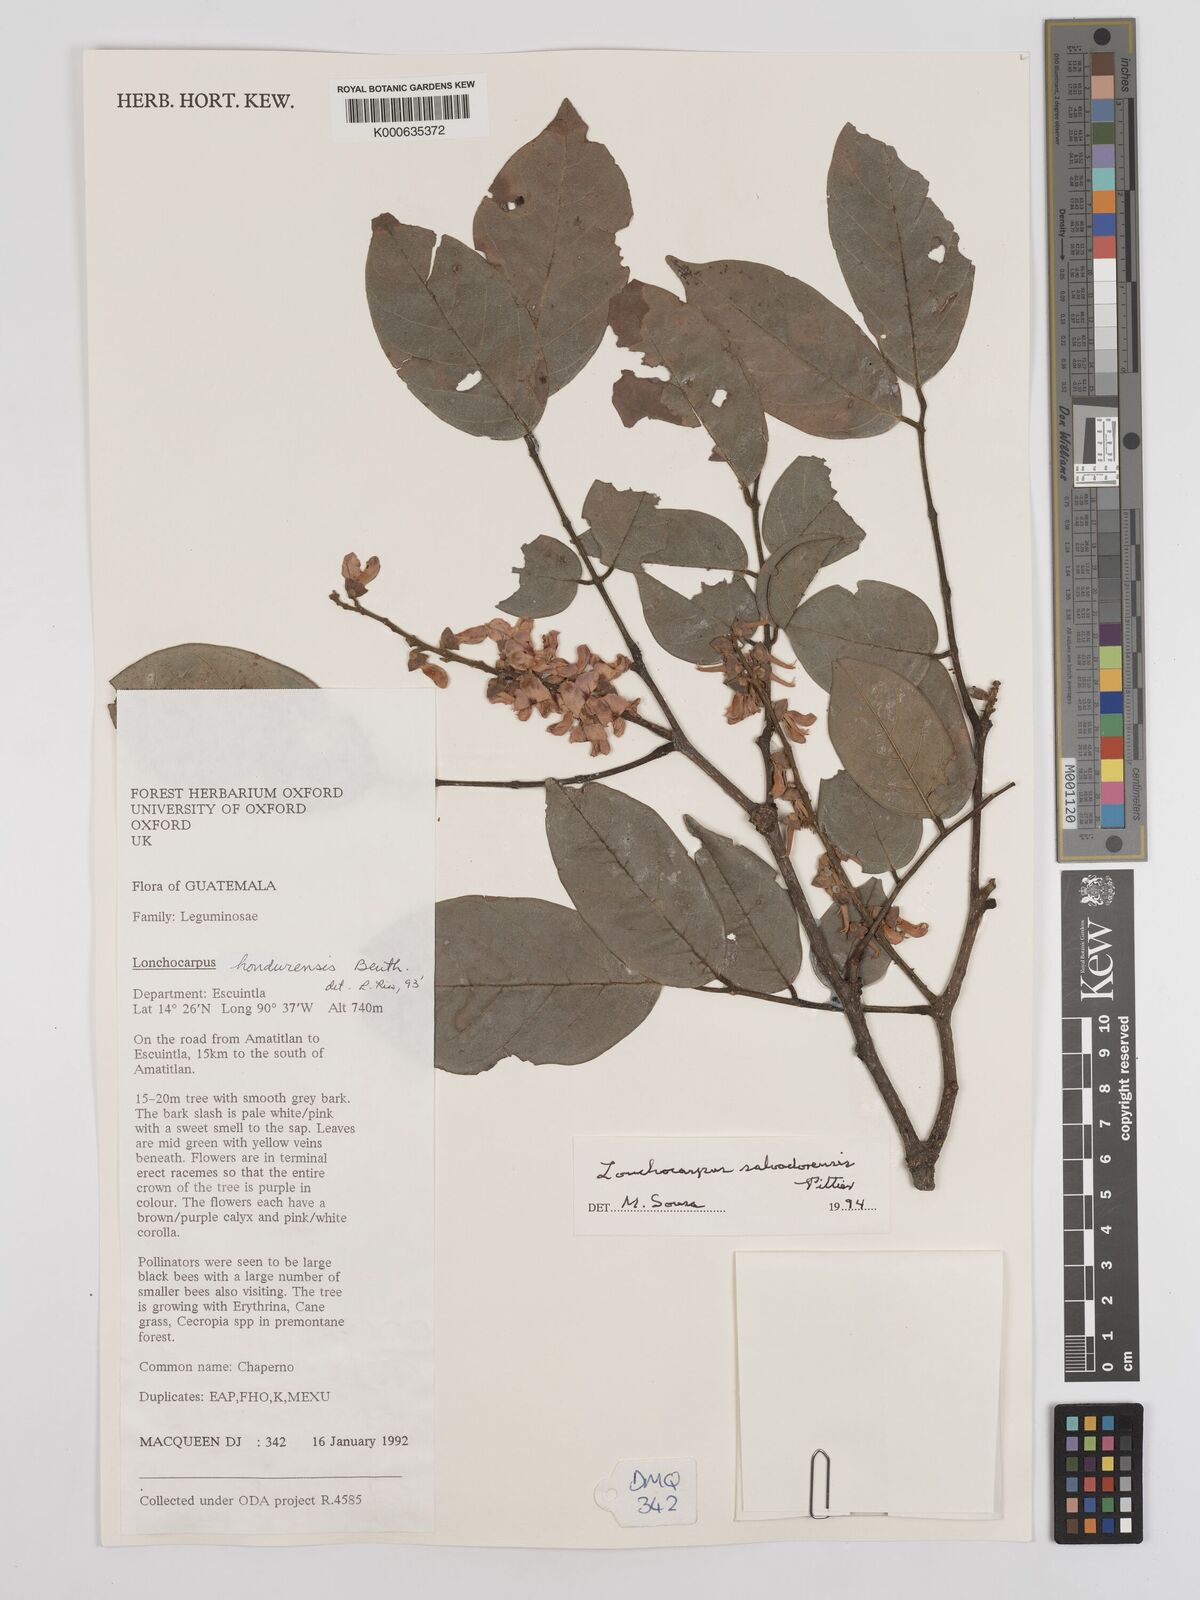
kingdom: Plantae
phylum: Tracheophyta
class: Magnoliopsida
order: Fabales
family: Fabaceae
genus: Lonchocarpus
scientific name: Lonchocarpus salvadorensis
